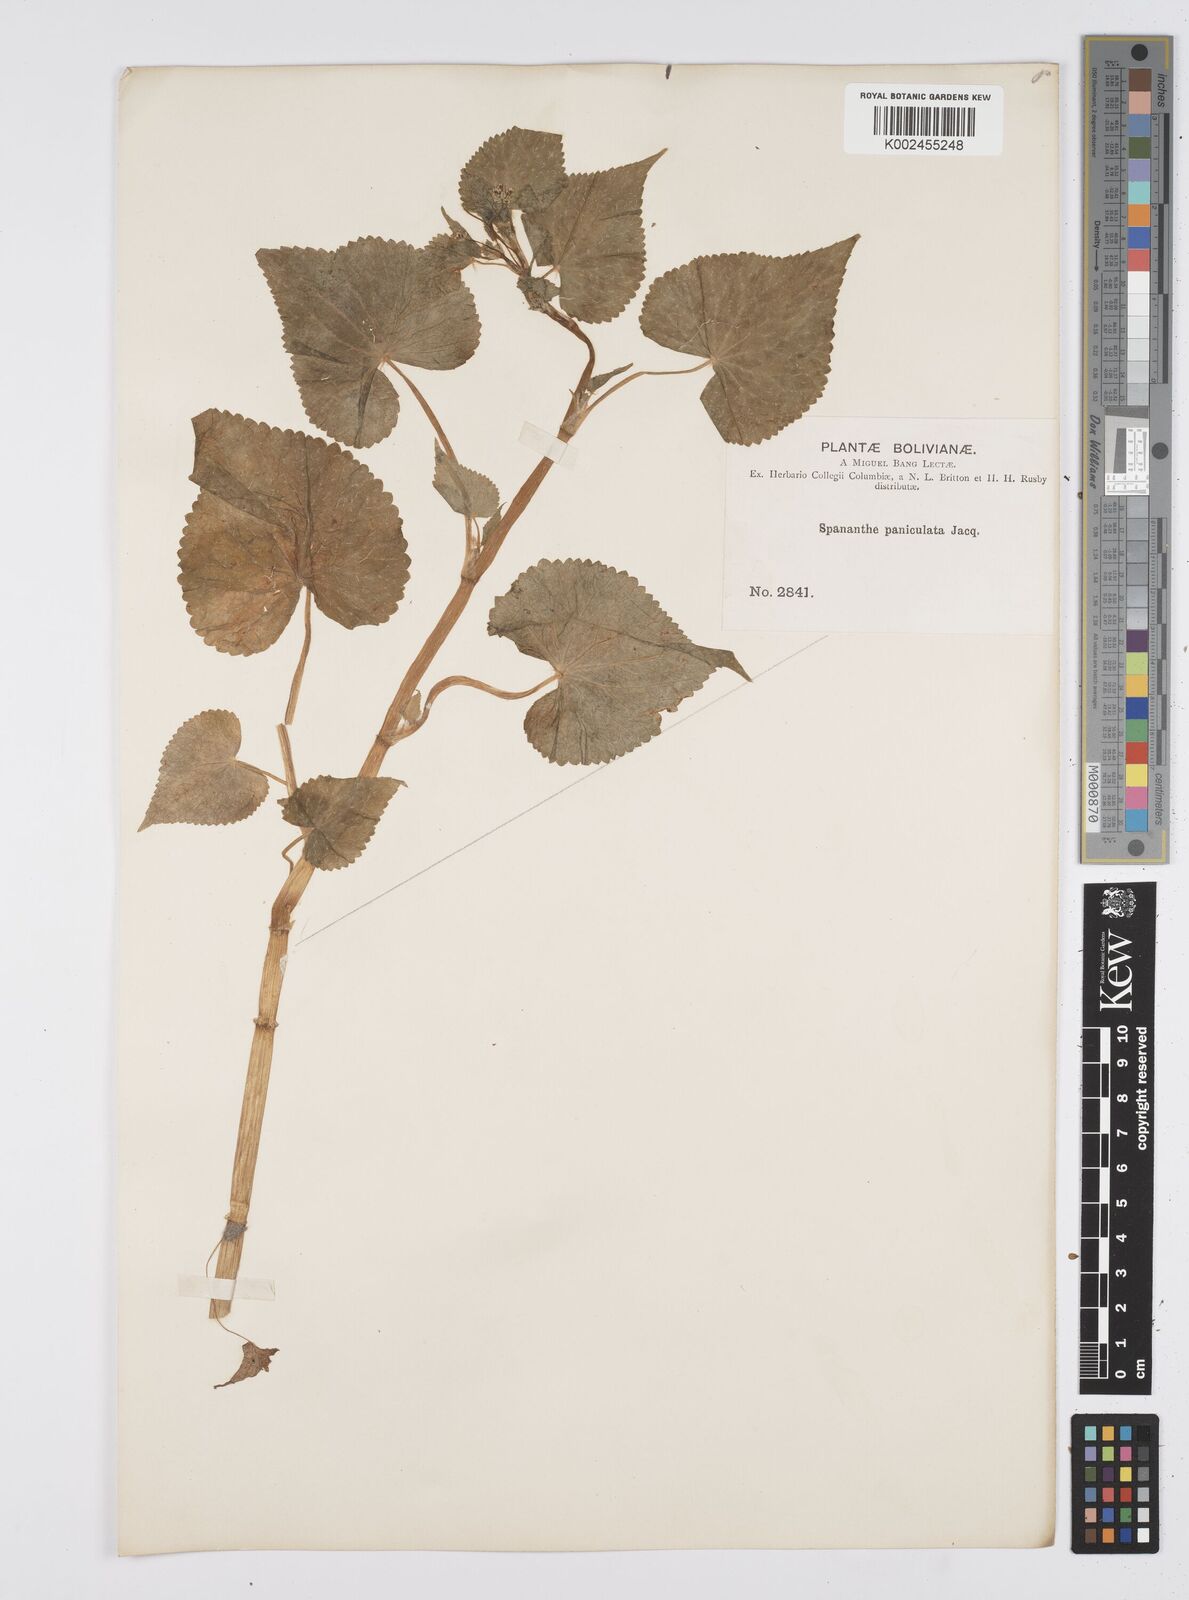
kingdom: Plantae
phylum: Tracheophyta
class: Magnoliopsida
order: Apiales
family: Apiaceae
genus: Azorella
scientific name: Azorella
